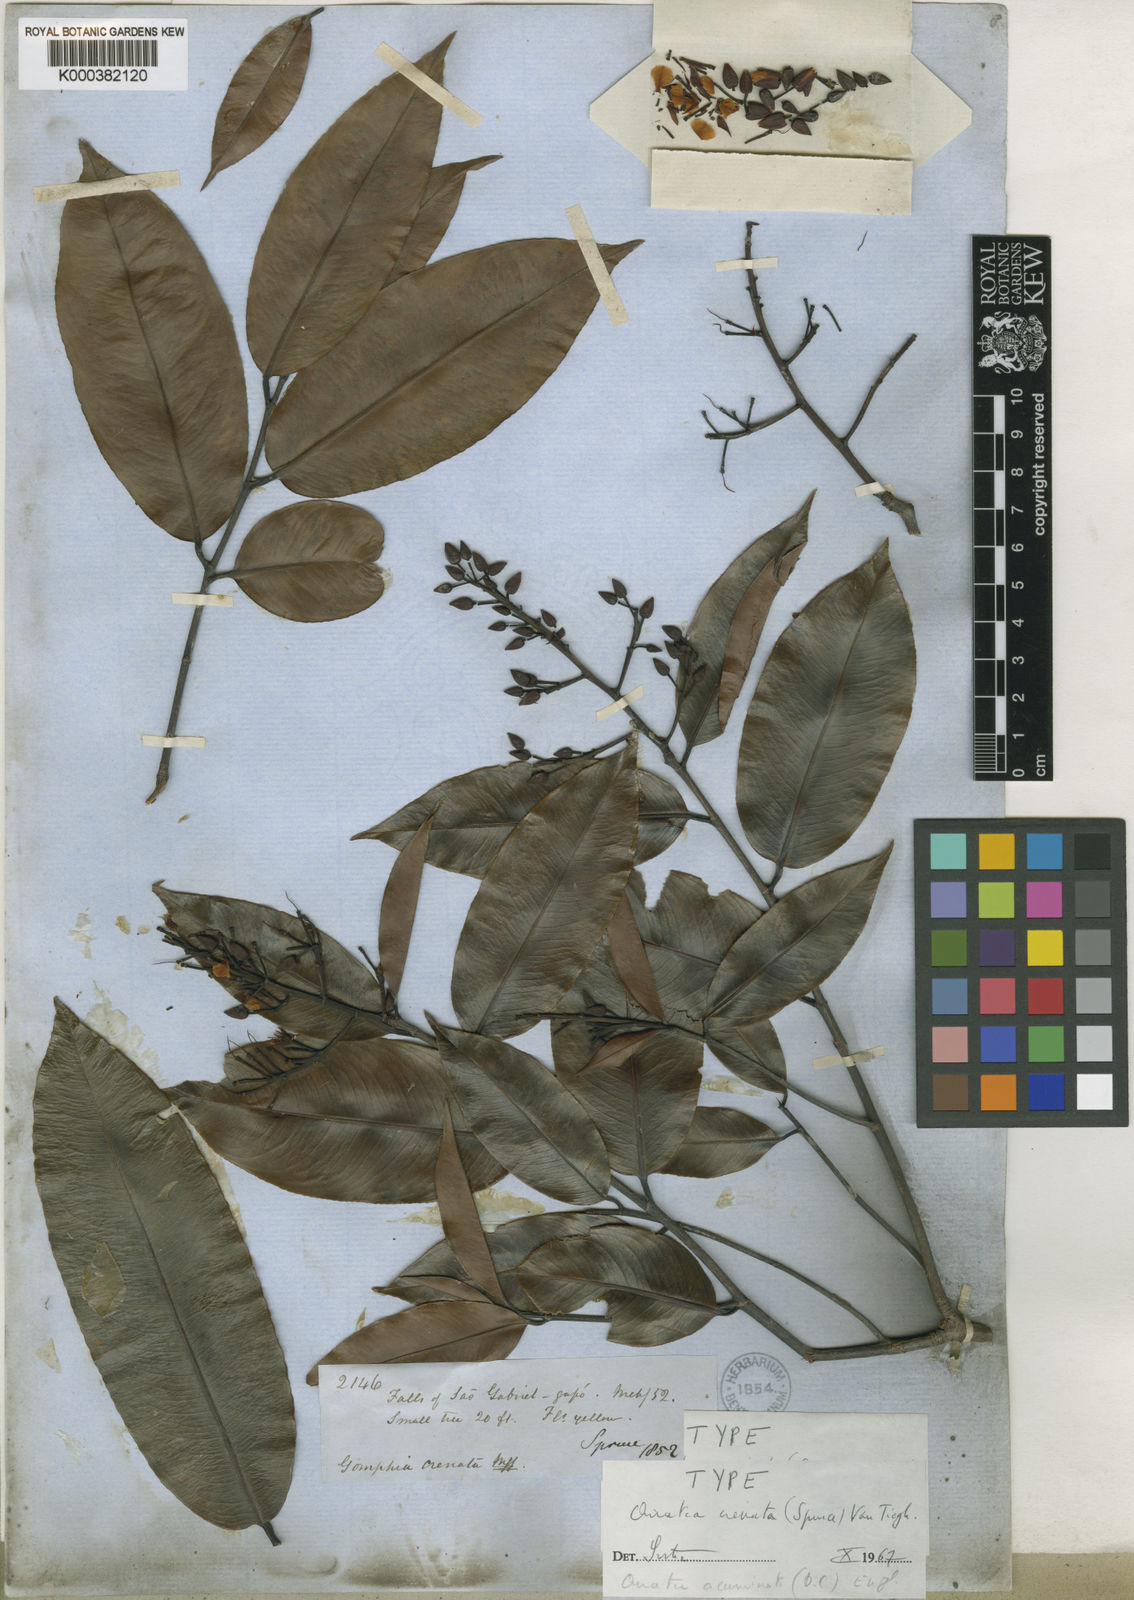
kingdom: Plantae
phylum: Tracheophyta
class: Magnoliopsida
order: Malpighiales
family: Ochnaceae
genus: Ouratea
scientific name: Ouratea pisiformis
